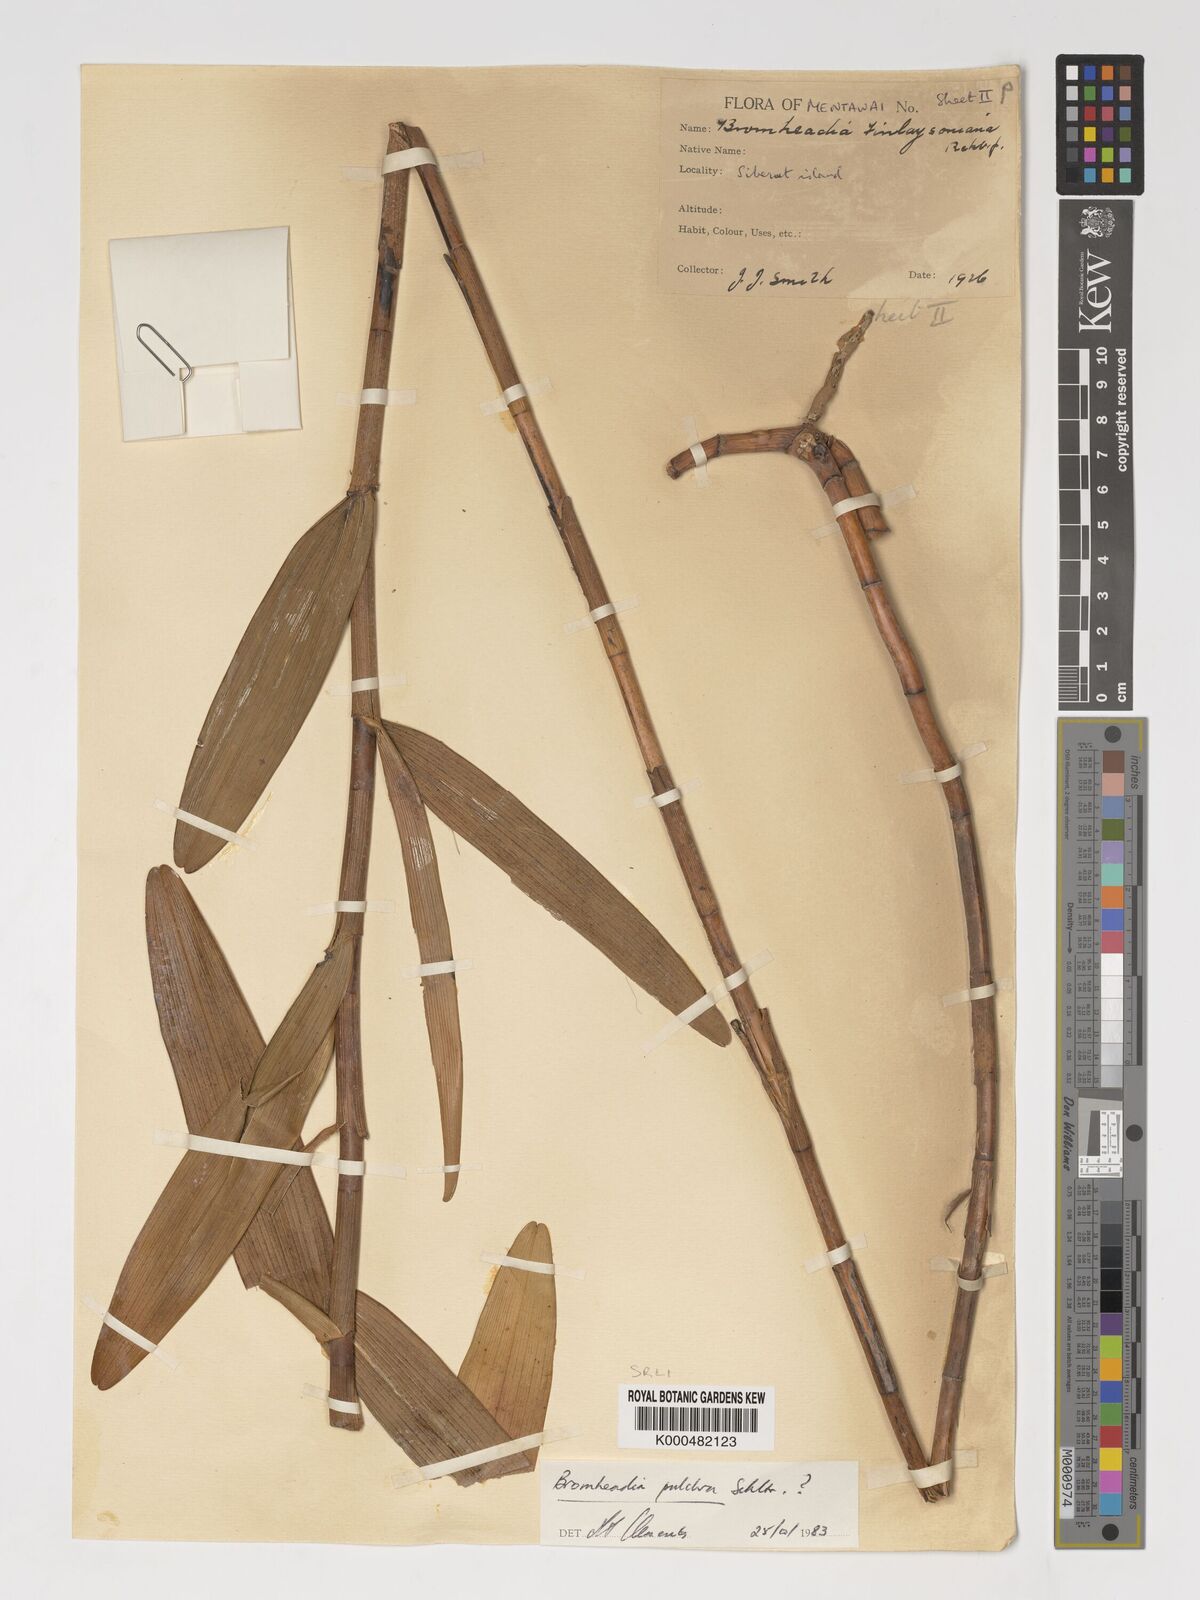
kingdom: Plantae
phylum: Tracheophyta
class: Liliopsida
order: Asparagales
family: Orchidaceae
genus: Bromheadia
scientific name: Bromheadia finlaysoniana
